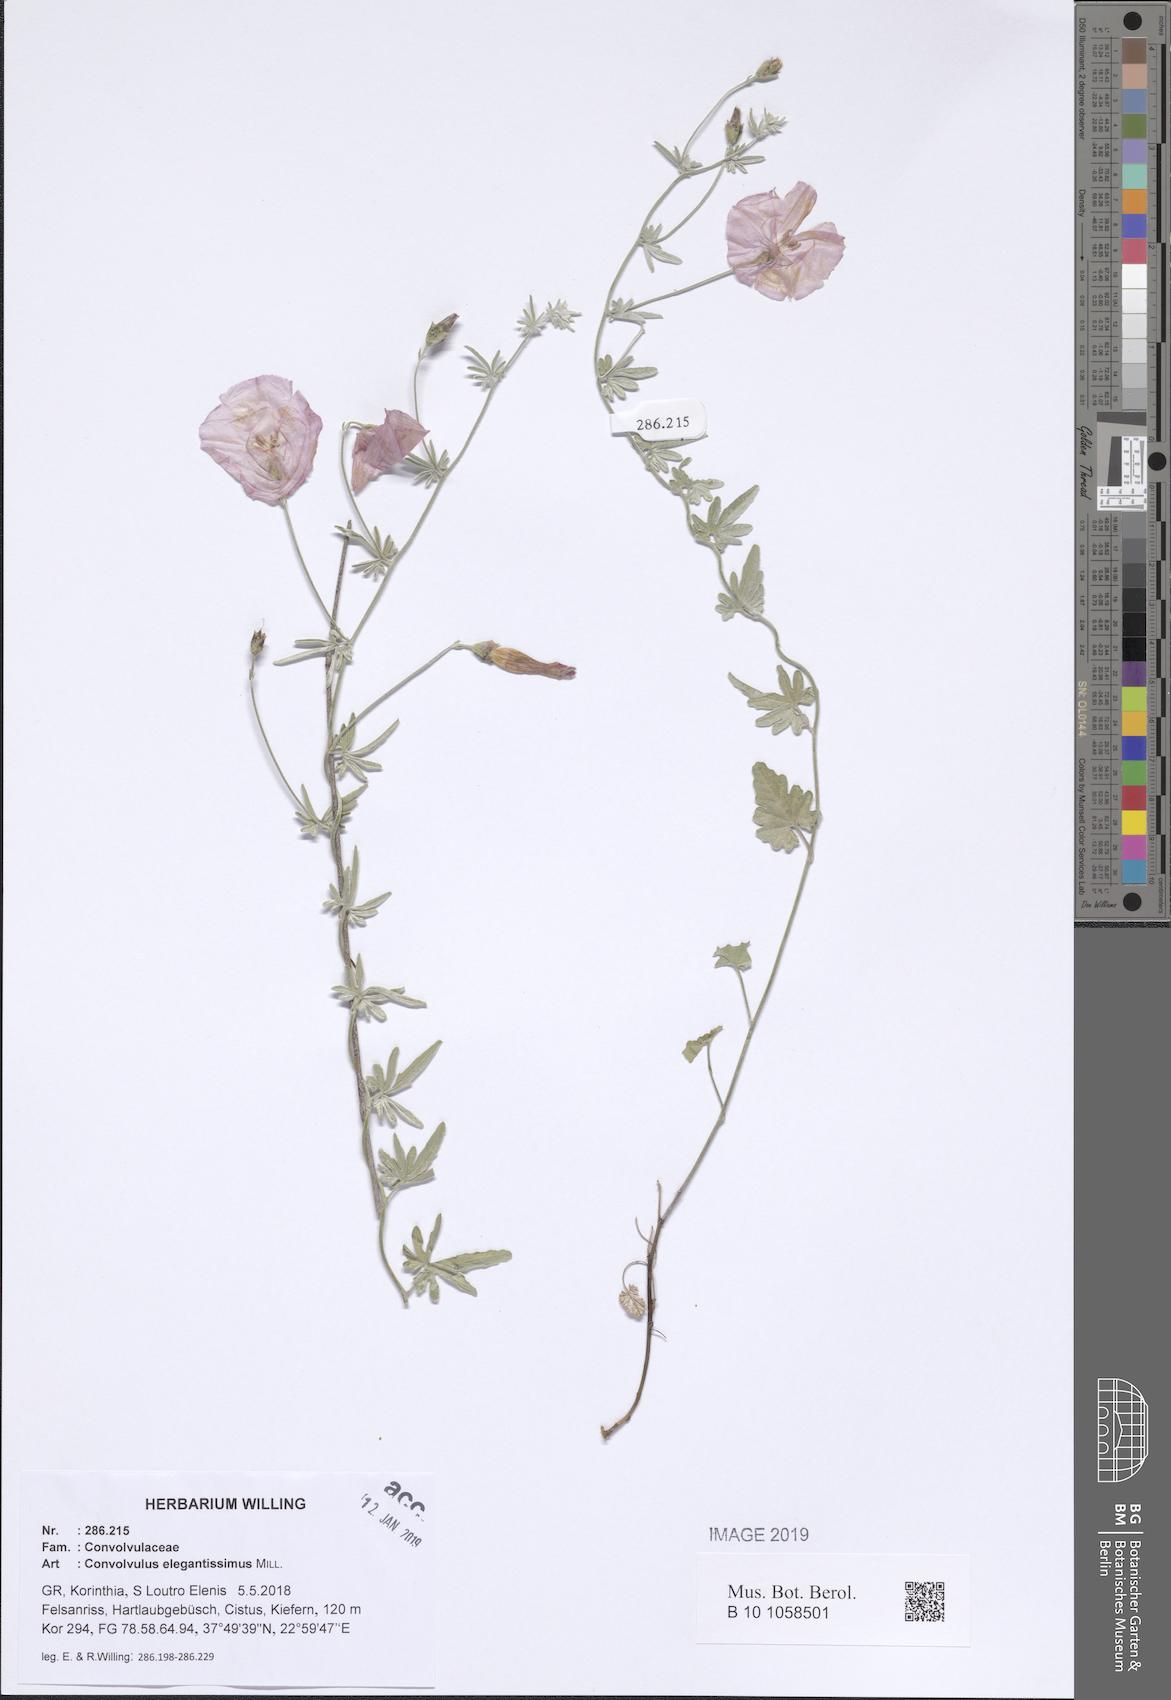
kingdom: Plantae
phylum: Tracheophyta
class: Magnoliopsida
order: Solanales
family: Convolvulaceae
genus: Convolvulus
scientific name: Convolvulus elegantissimus
